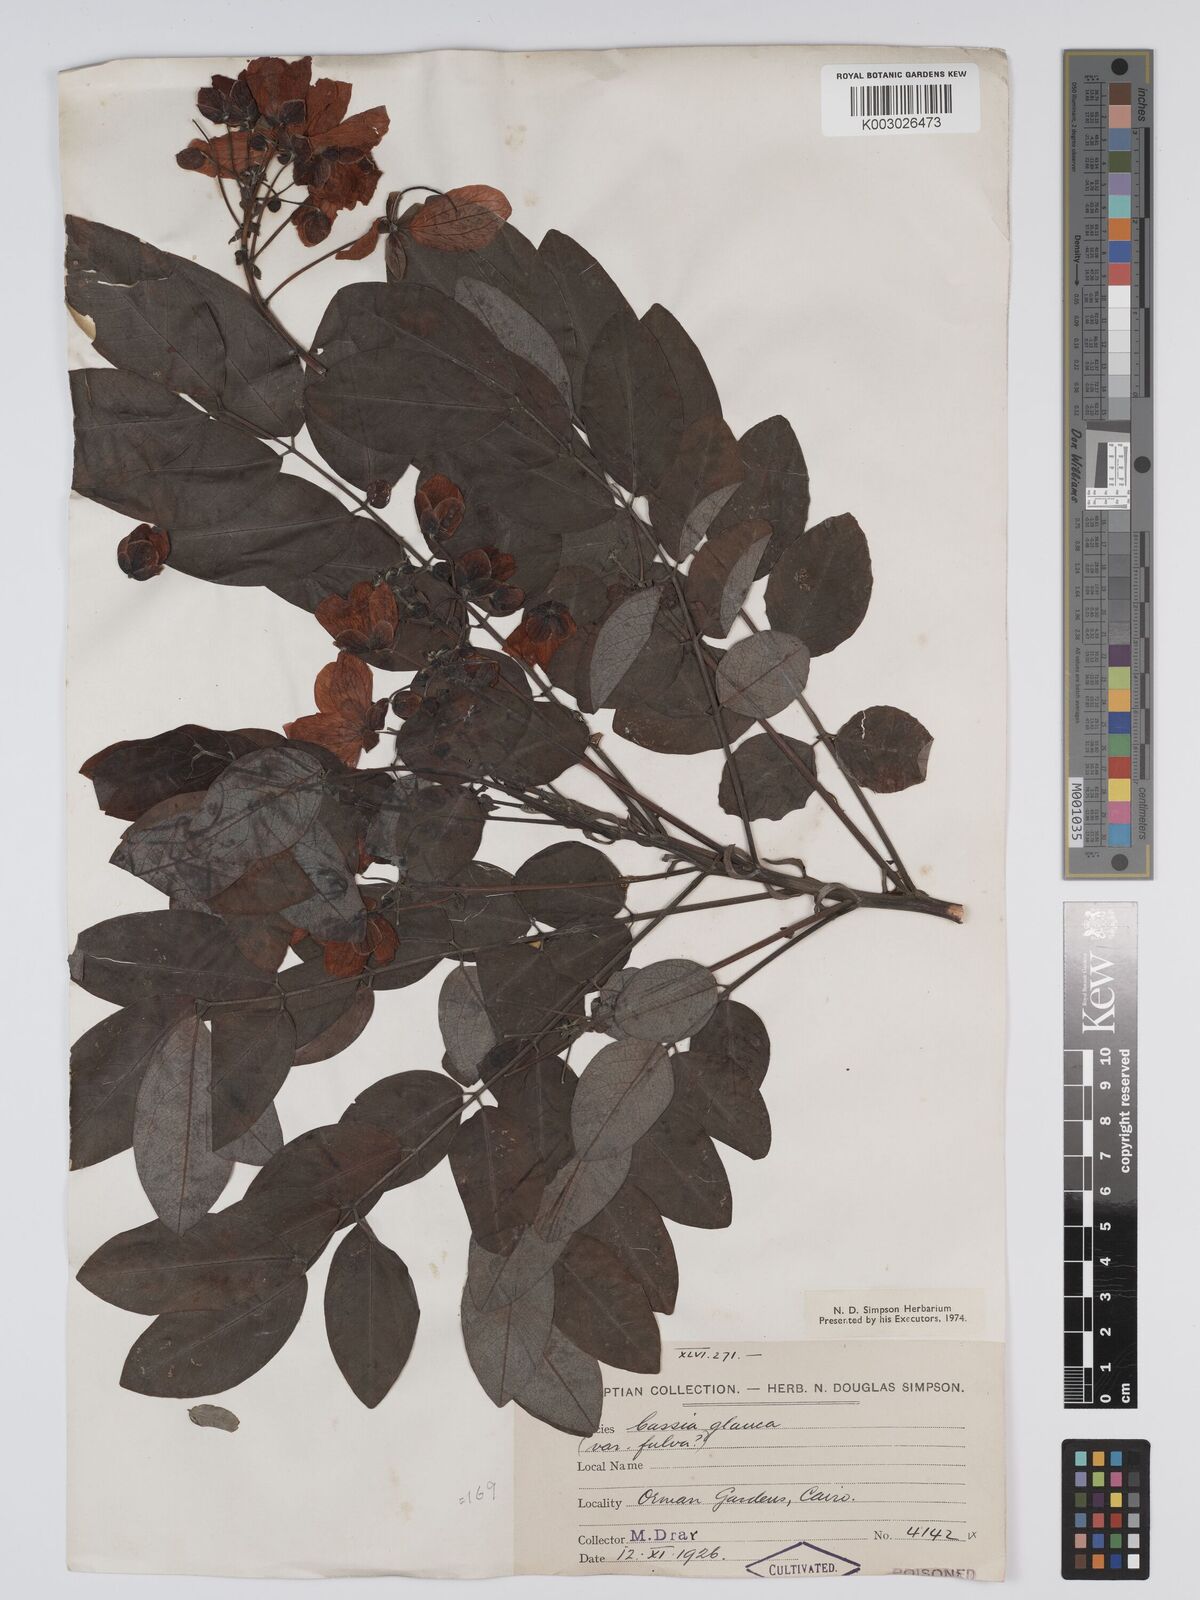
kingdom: Plantae
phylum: Tracheophyta
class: Magnoliopsida
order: Fabales
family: Fabaceae
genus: Senna
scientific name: Senna sulfurea
